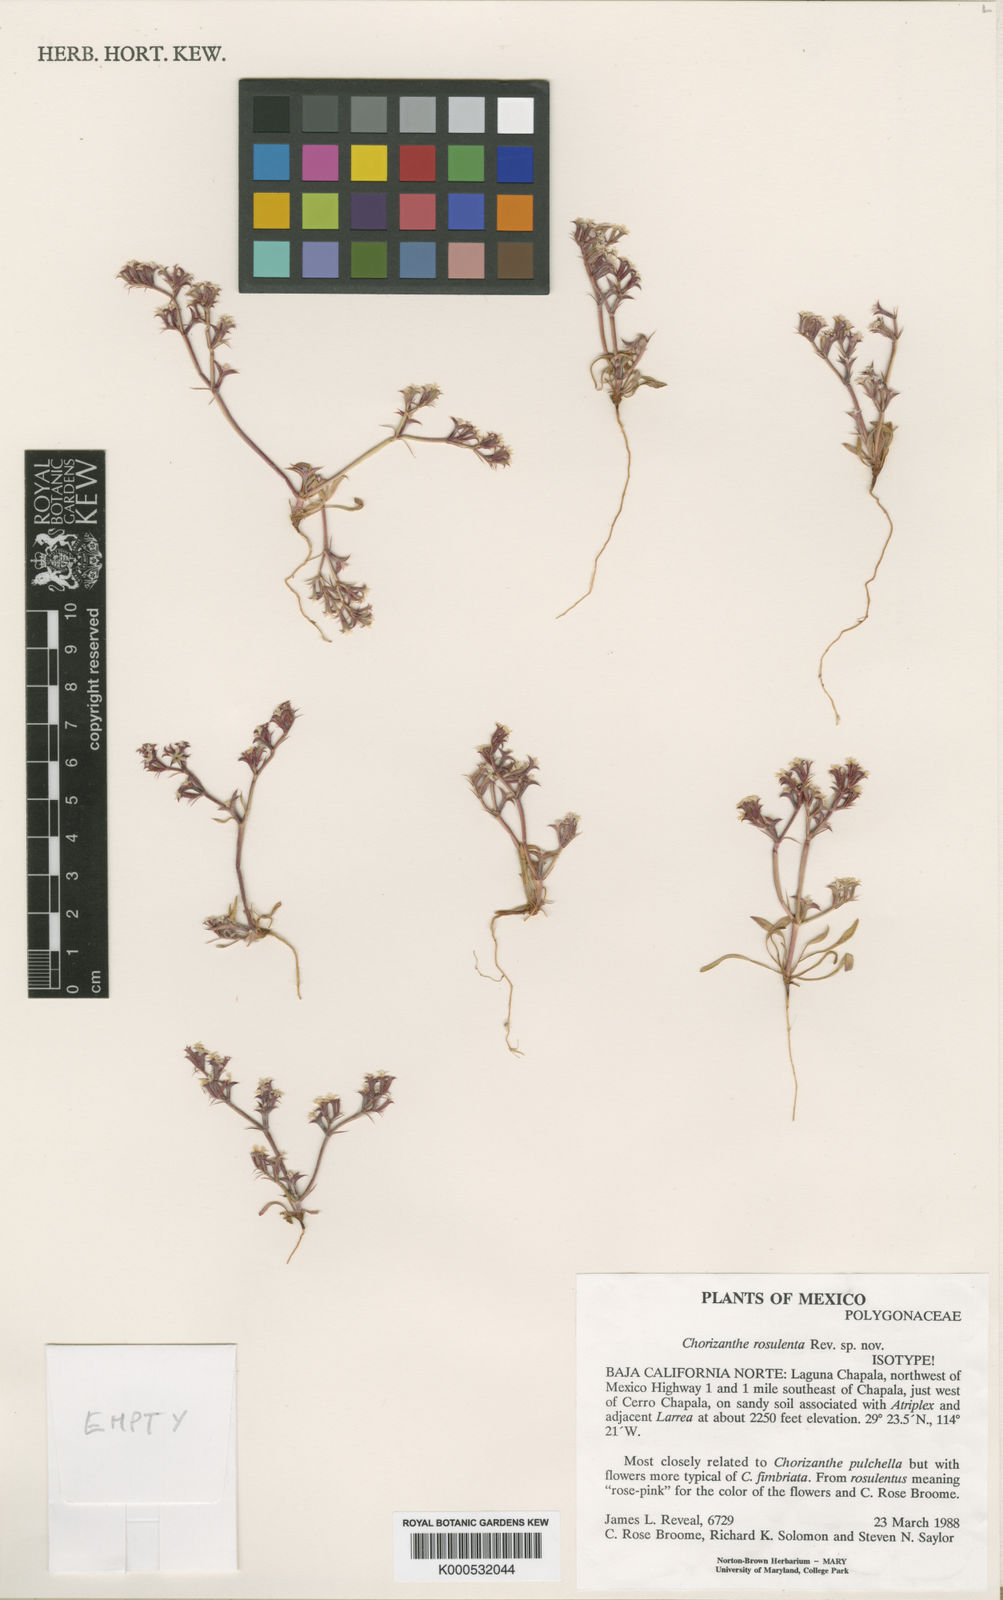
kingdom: Plantae
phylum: Tracheophyta
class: Magnoliopsida
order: Caryophyllales
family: Polygonaceae
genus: Chorizanthe
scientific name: Chorizanthe rosulenta
